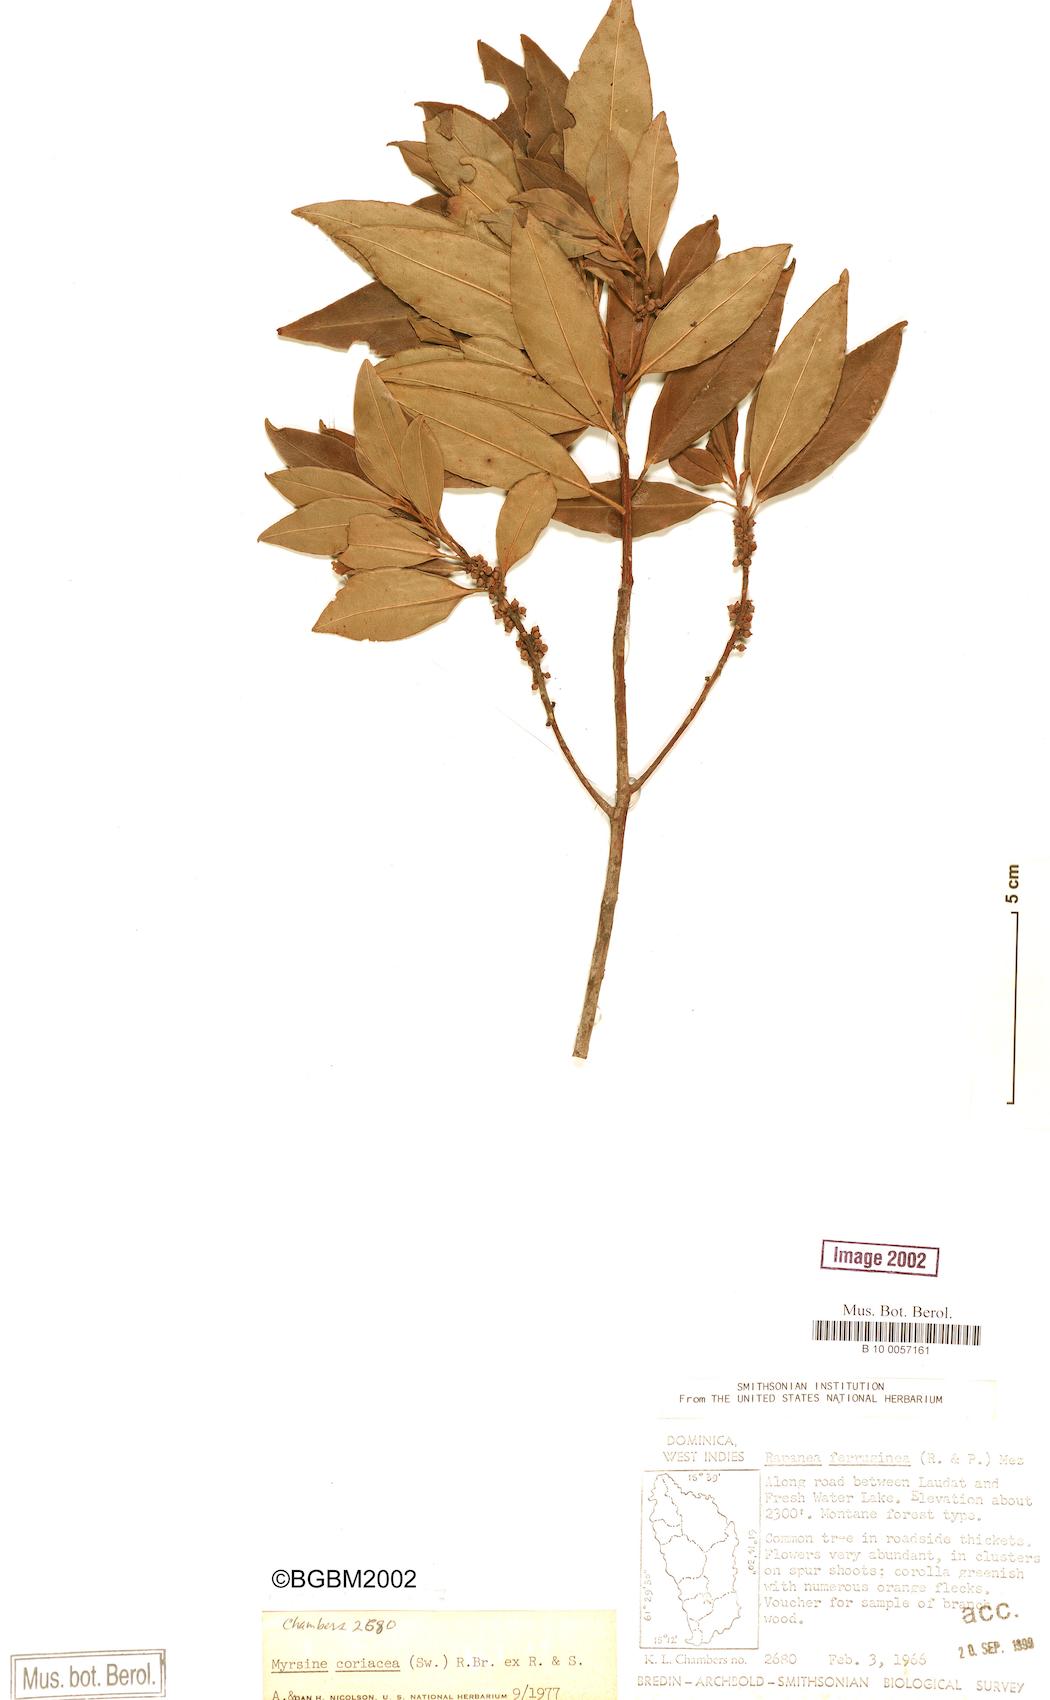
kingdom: Plantae
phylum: Tracheophyta
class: Magnoliopsida
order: Ericales
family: Primulaceae
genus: Myrsine
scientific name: Myrsine coriacea
